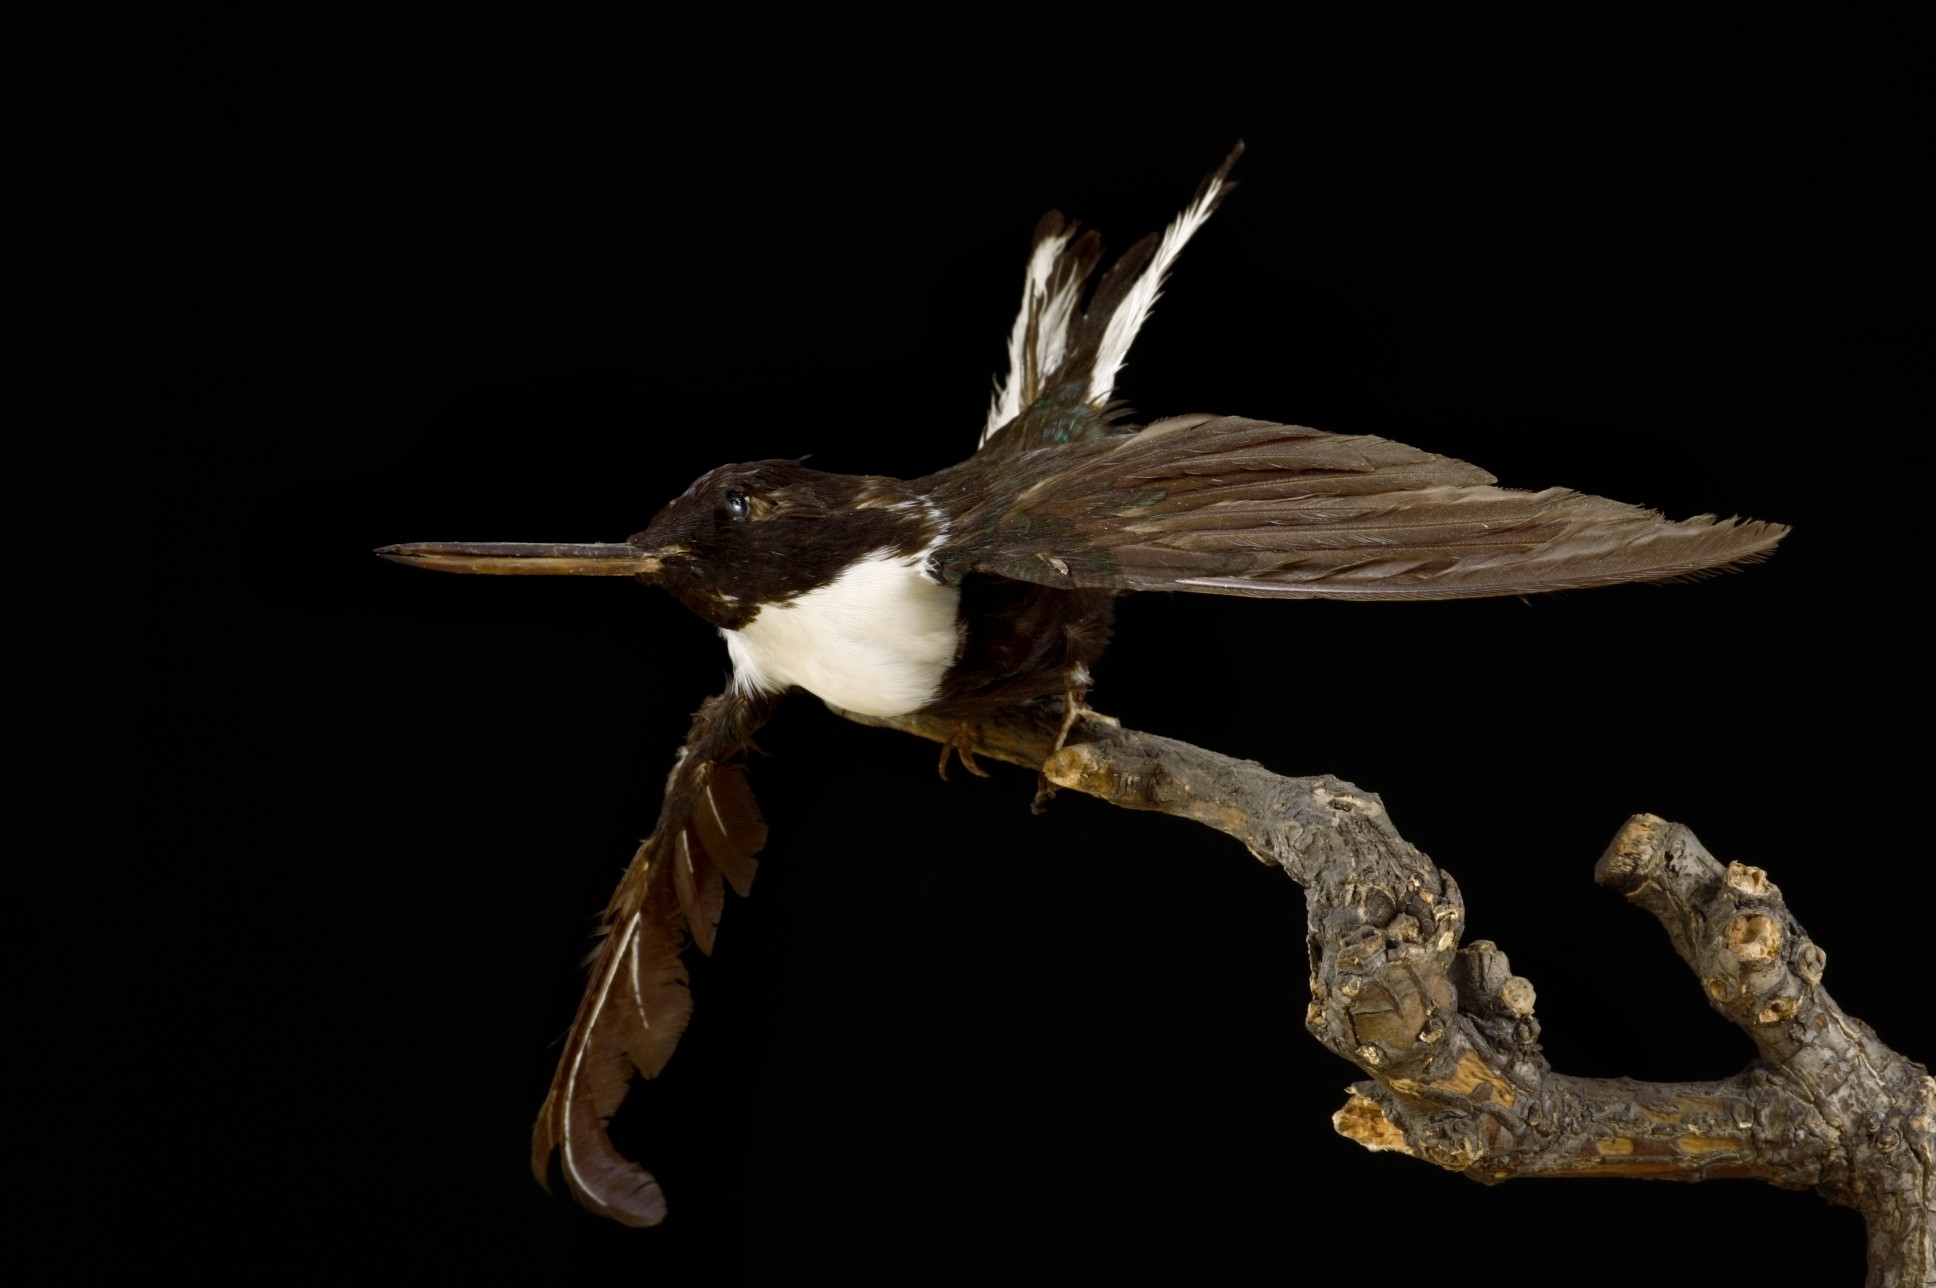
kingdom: Animalia
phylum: Chordata
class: Aves
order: Apodiformes
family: Trochilidae
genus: Coeligena
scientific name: Coeligena torquata
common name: Collared inca
